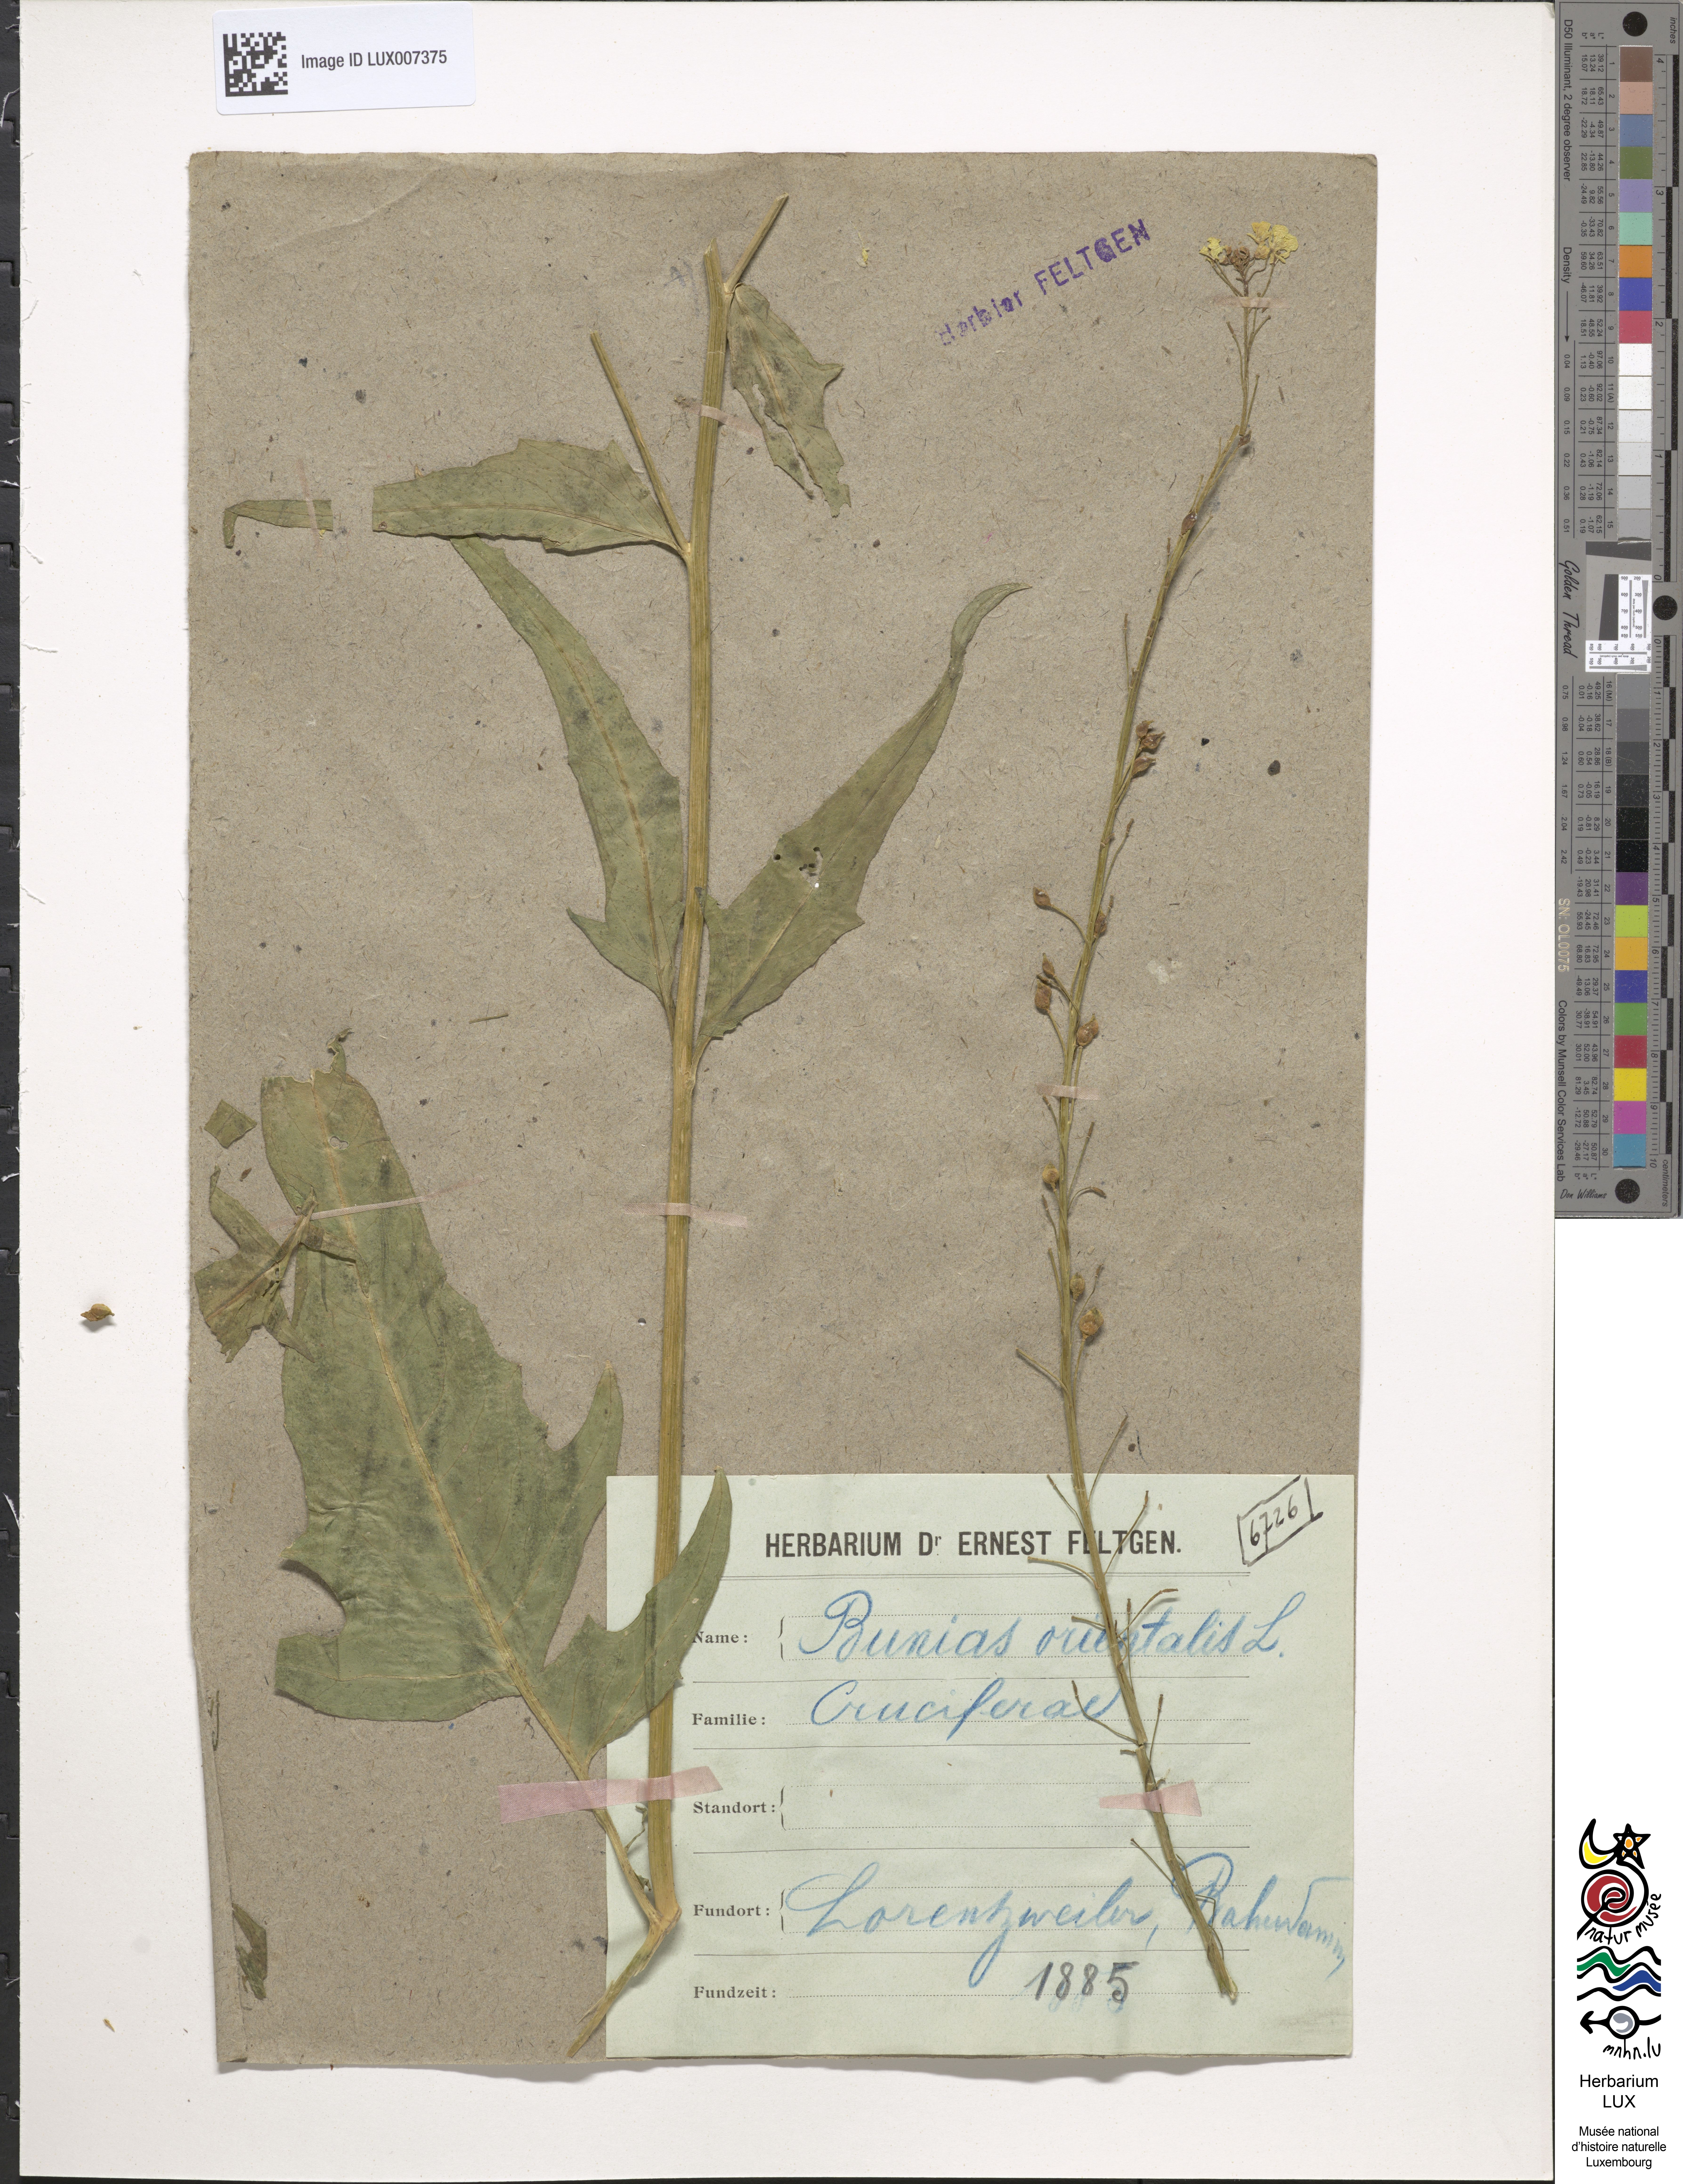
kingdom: Plantae
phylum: Tracheophyta
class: Magnoliopsida
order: Brassicales
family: Brassicaceae
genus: Bunias
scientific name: Bunias orientalis
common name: Warty-cabbage
